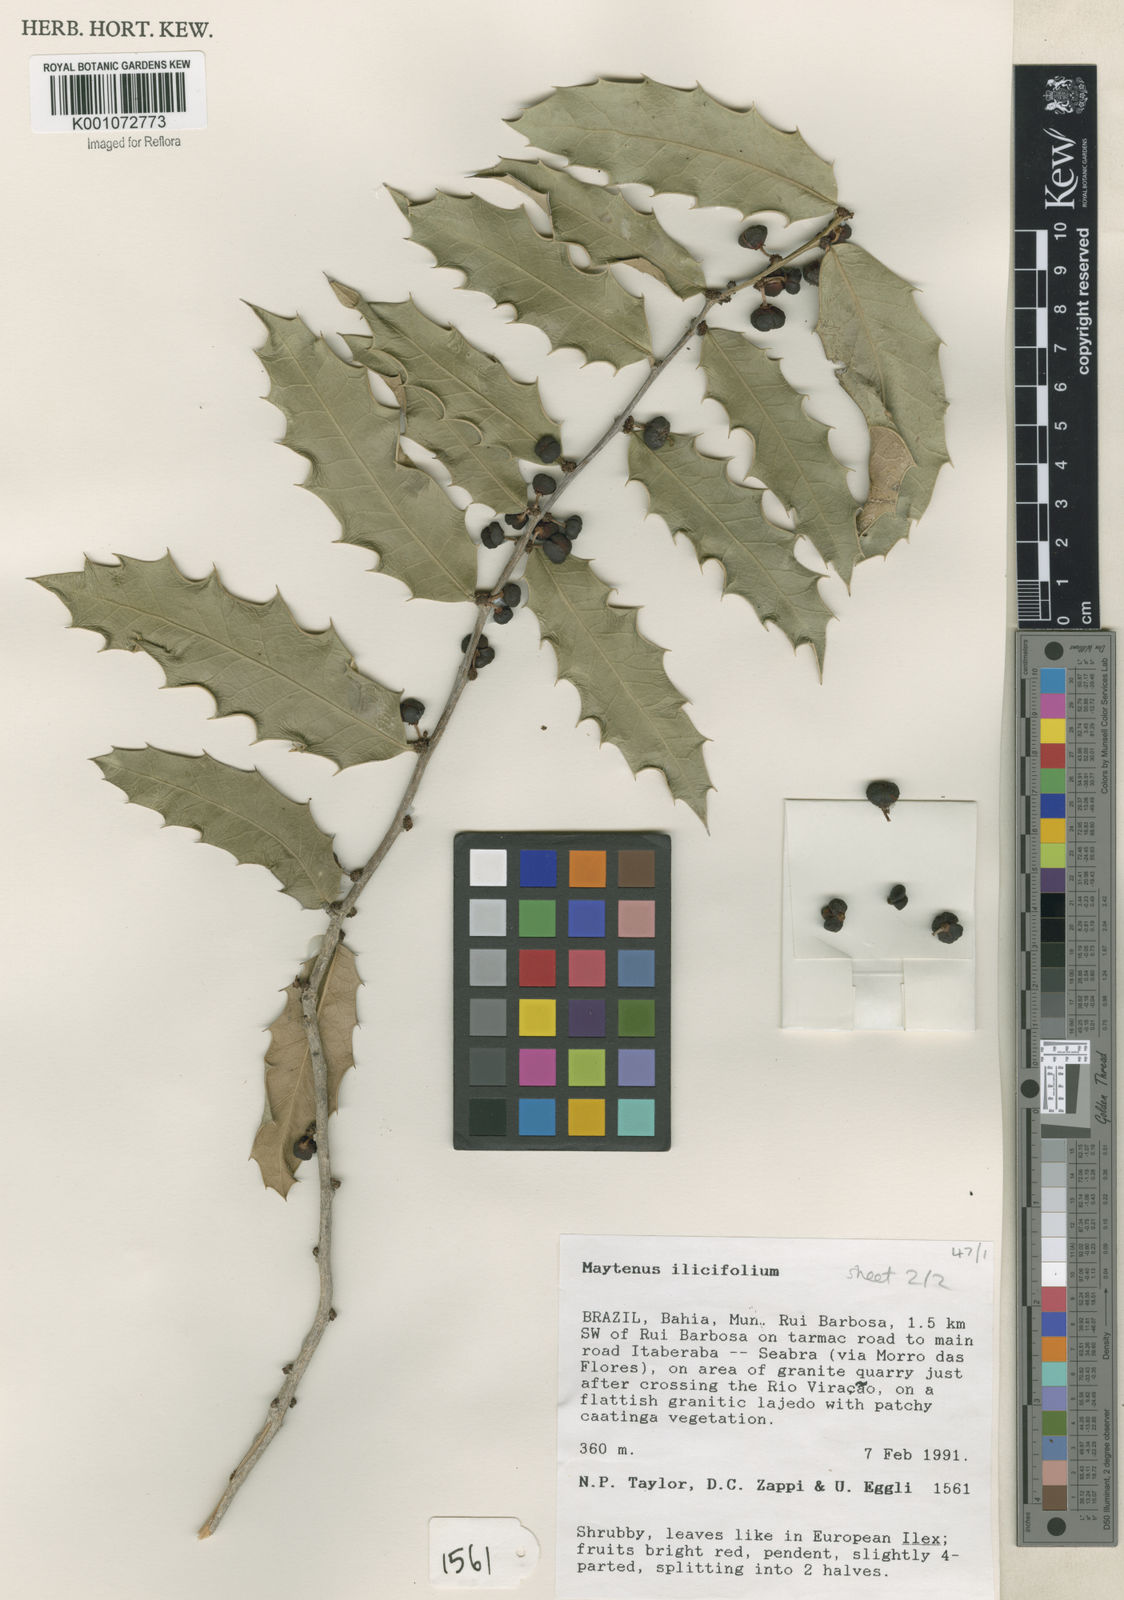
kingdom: Plantae
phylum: Tracheophyta
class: Magnoliopsida
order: Celastrales
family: Celastraceae
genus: Monteverdia
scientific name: Monteverdia ilicifolia
